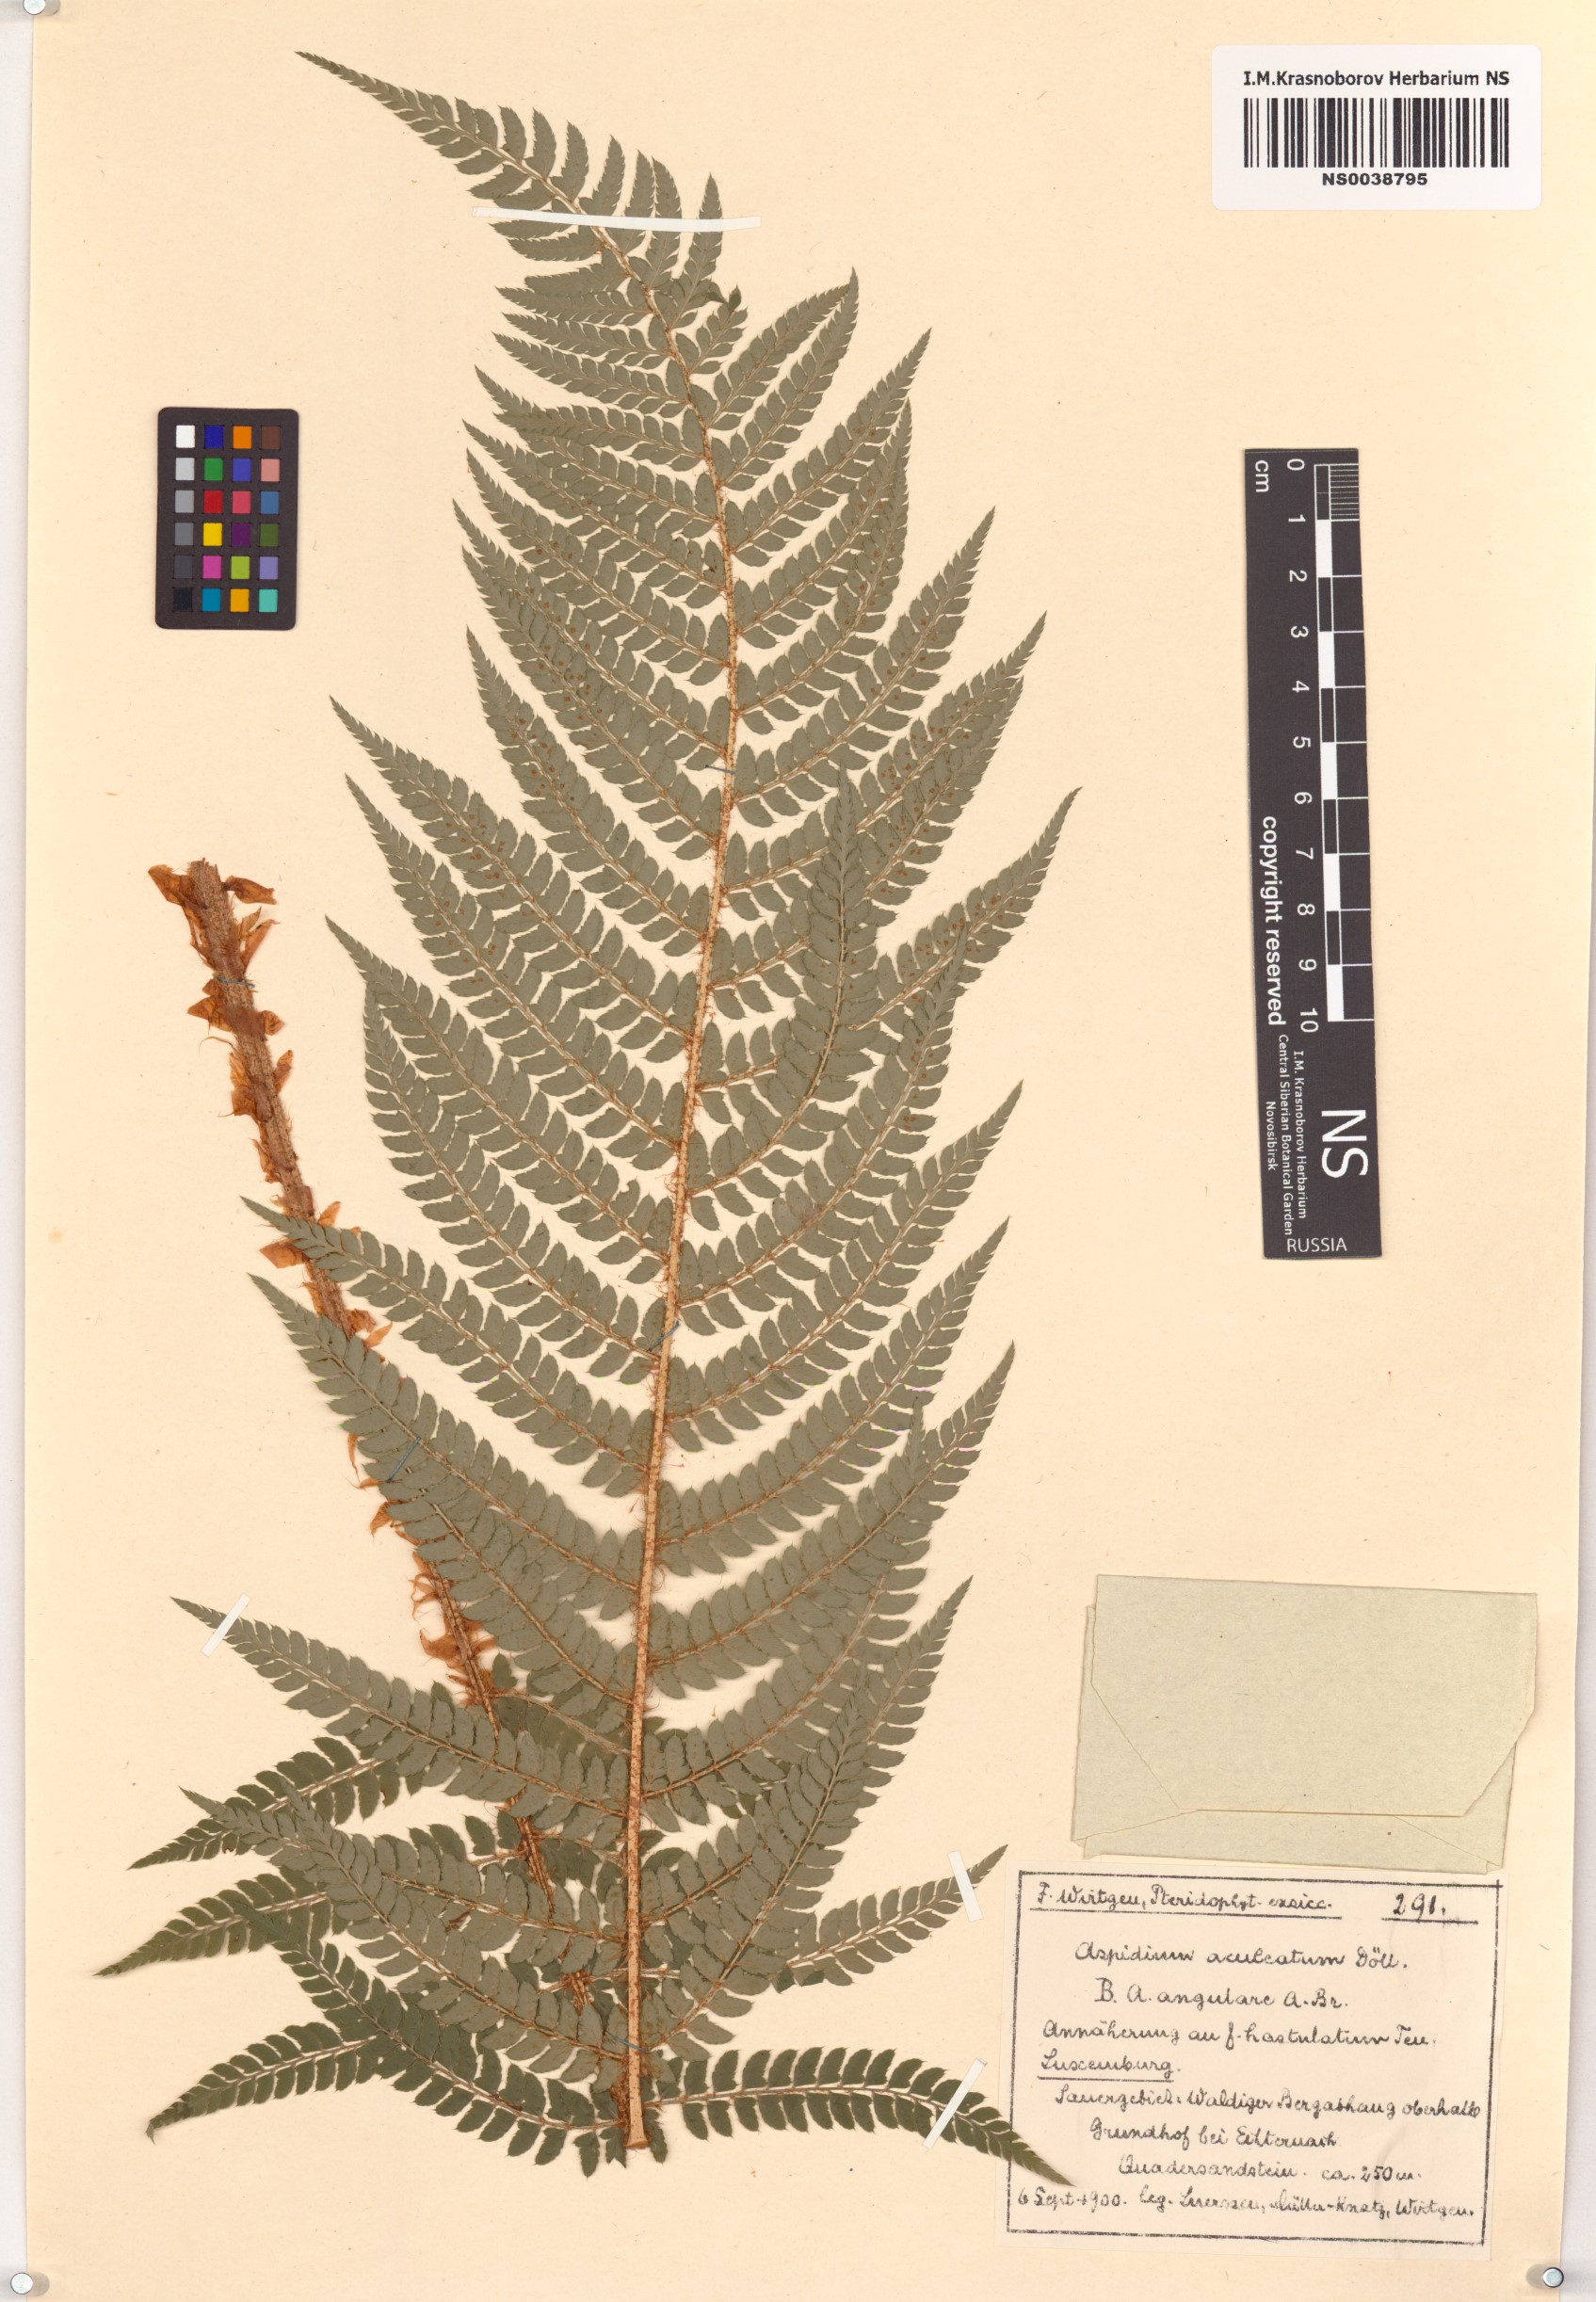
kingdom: Plantae
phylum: Tracheophyta
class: Polypodiopsida
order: Polypodiales
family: Dryopteridaceae
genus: Polystichum
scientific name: Polystichum aculeatum
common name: Hard shield-fern
